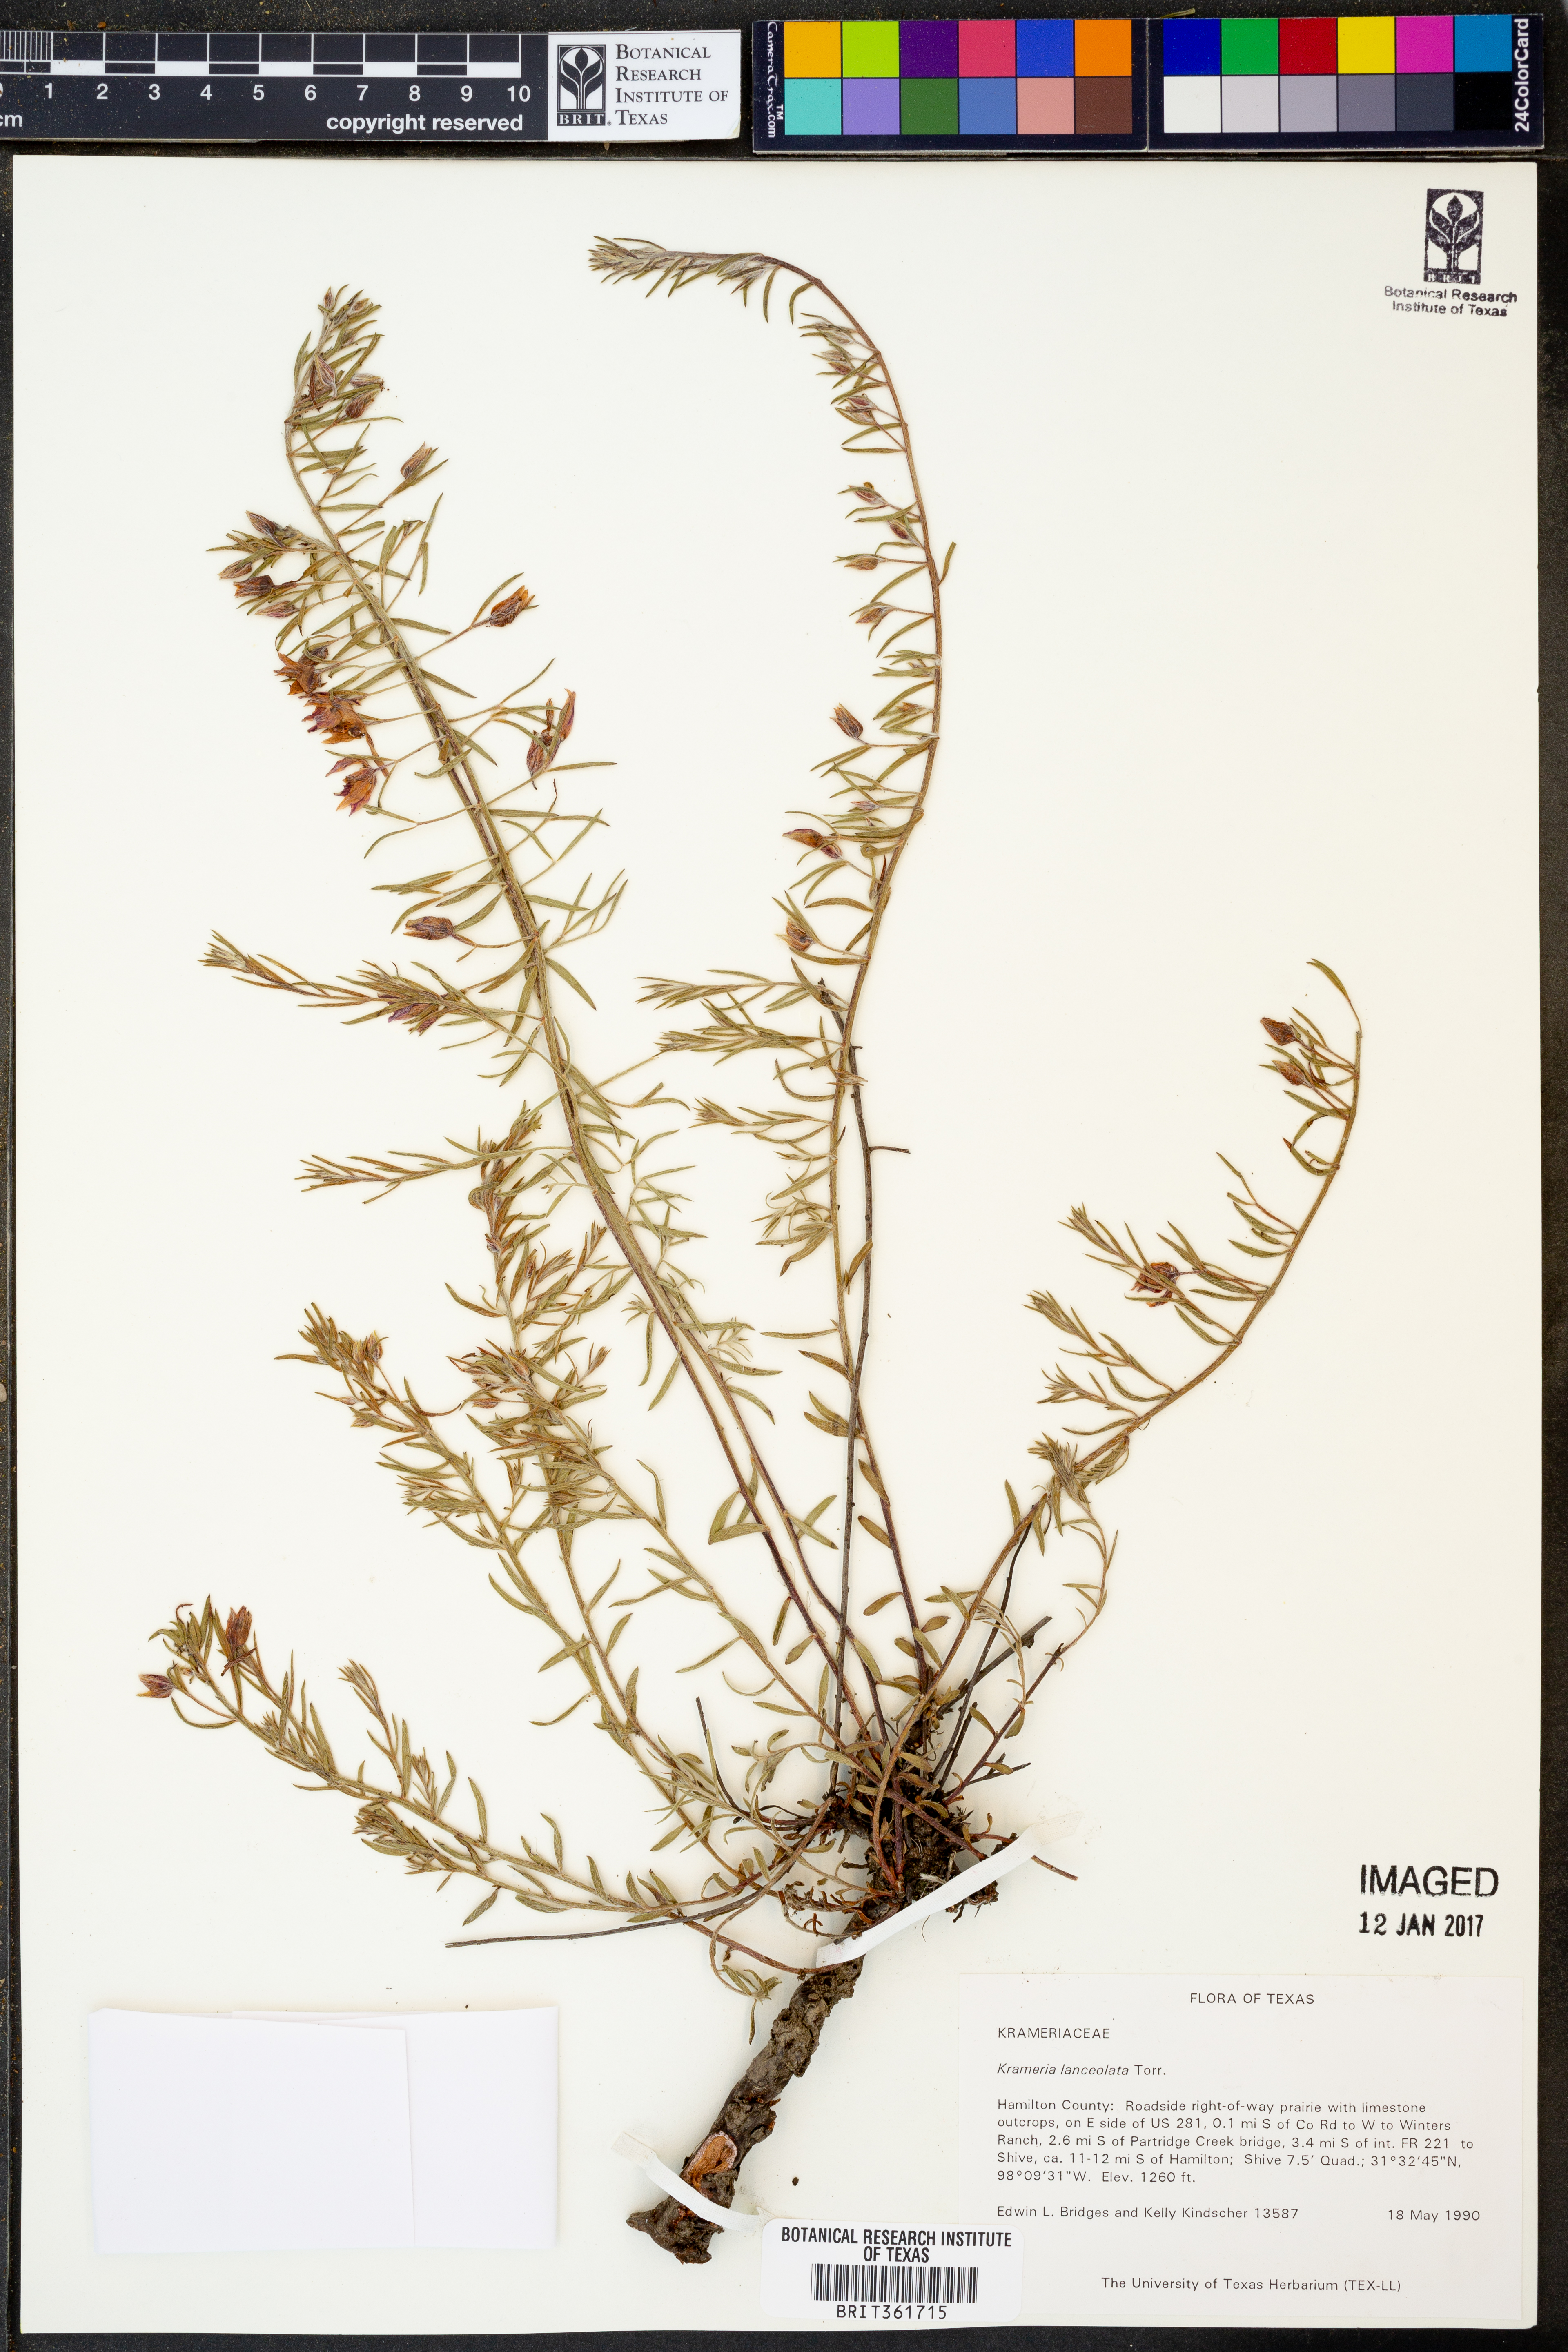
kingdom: Plantae
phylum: Tracheophyta
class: Magnoliopsida
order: Zygophyllales
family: Krameriaceae
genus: Krameria
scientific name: Krameria lanceolata
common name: Ratany
